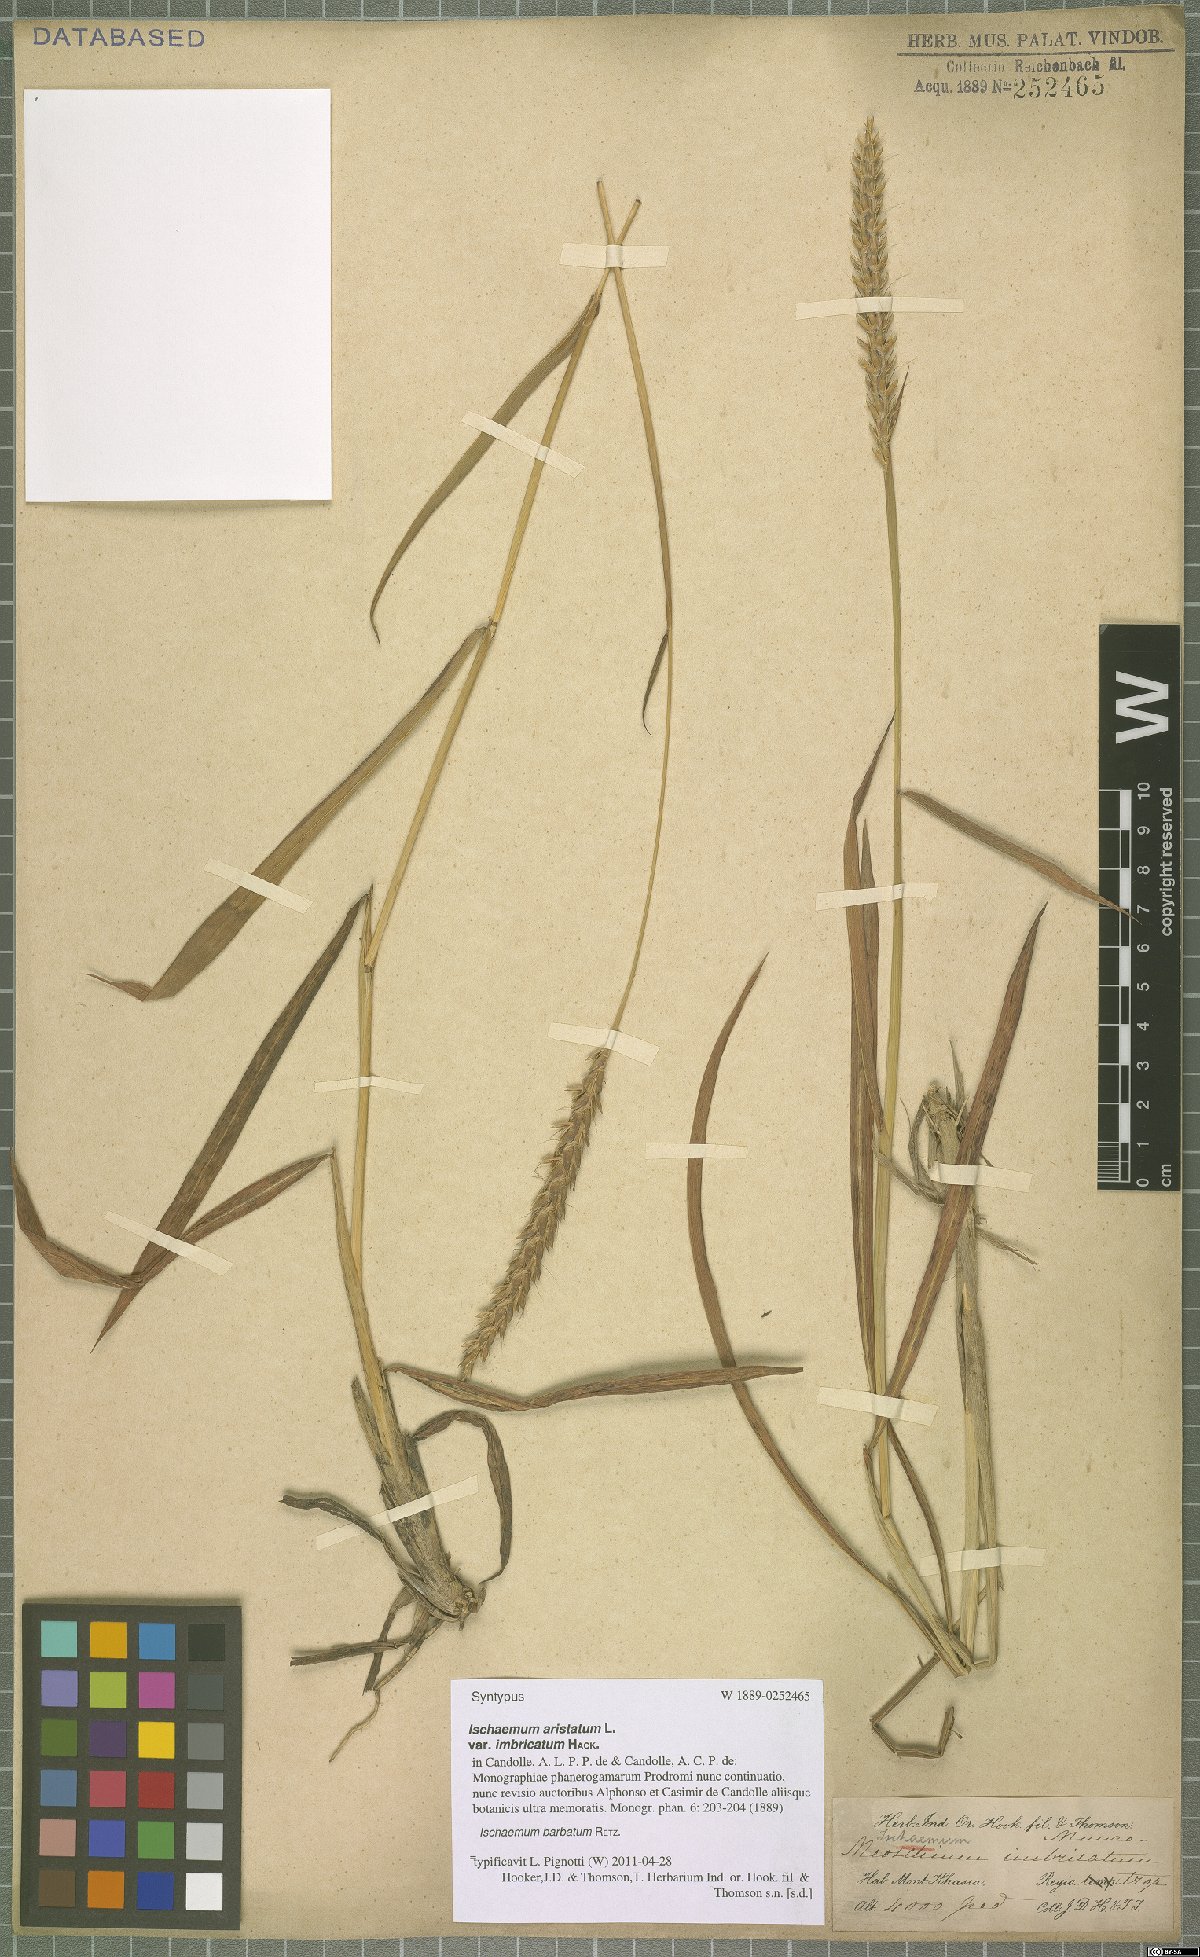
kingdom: Plantae
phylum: Tracheophyta
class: Liliopsida
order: Poales
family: Poaceae
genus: Ischaemum
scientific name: Ischaemum barbatum
